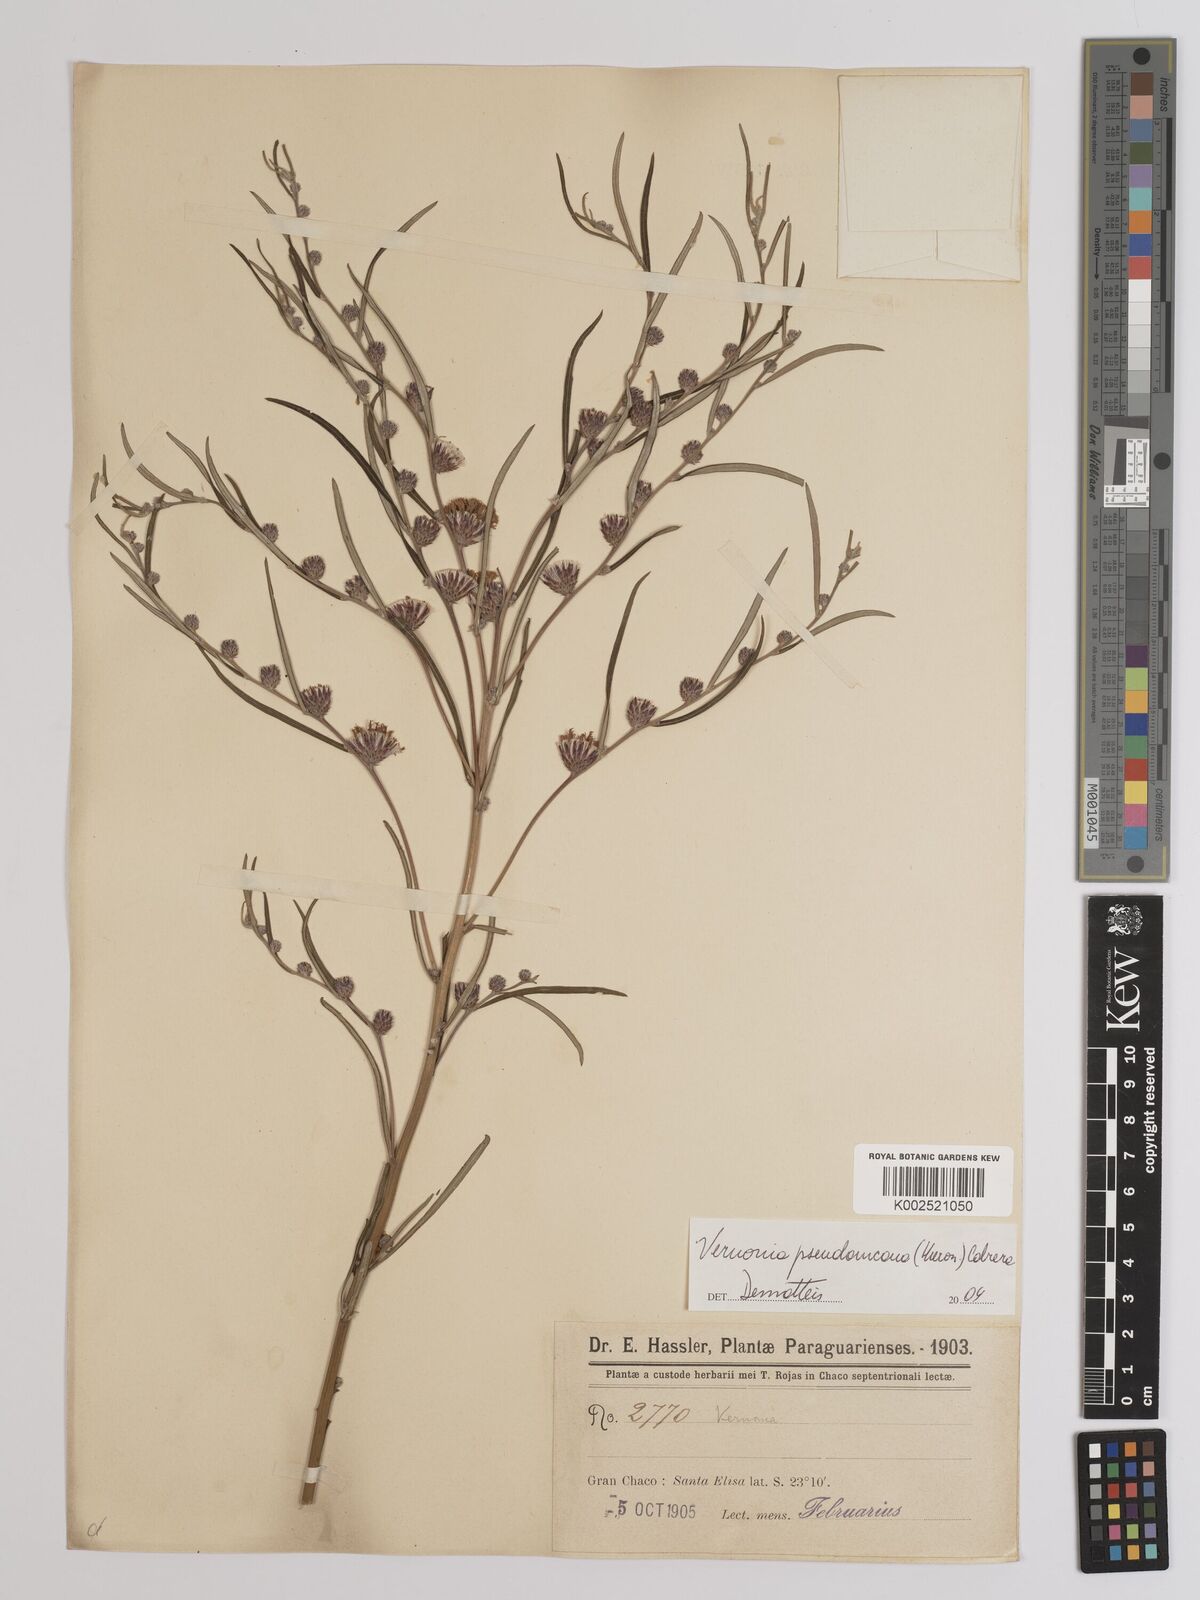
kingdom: Plantae
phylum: Tracheophyta
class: Magnoliopsida
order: Asterales
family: Asteraceae
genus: Lessingianthus
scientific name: Lessingianthus rubricaulis
